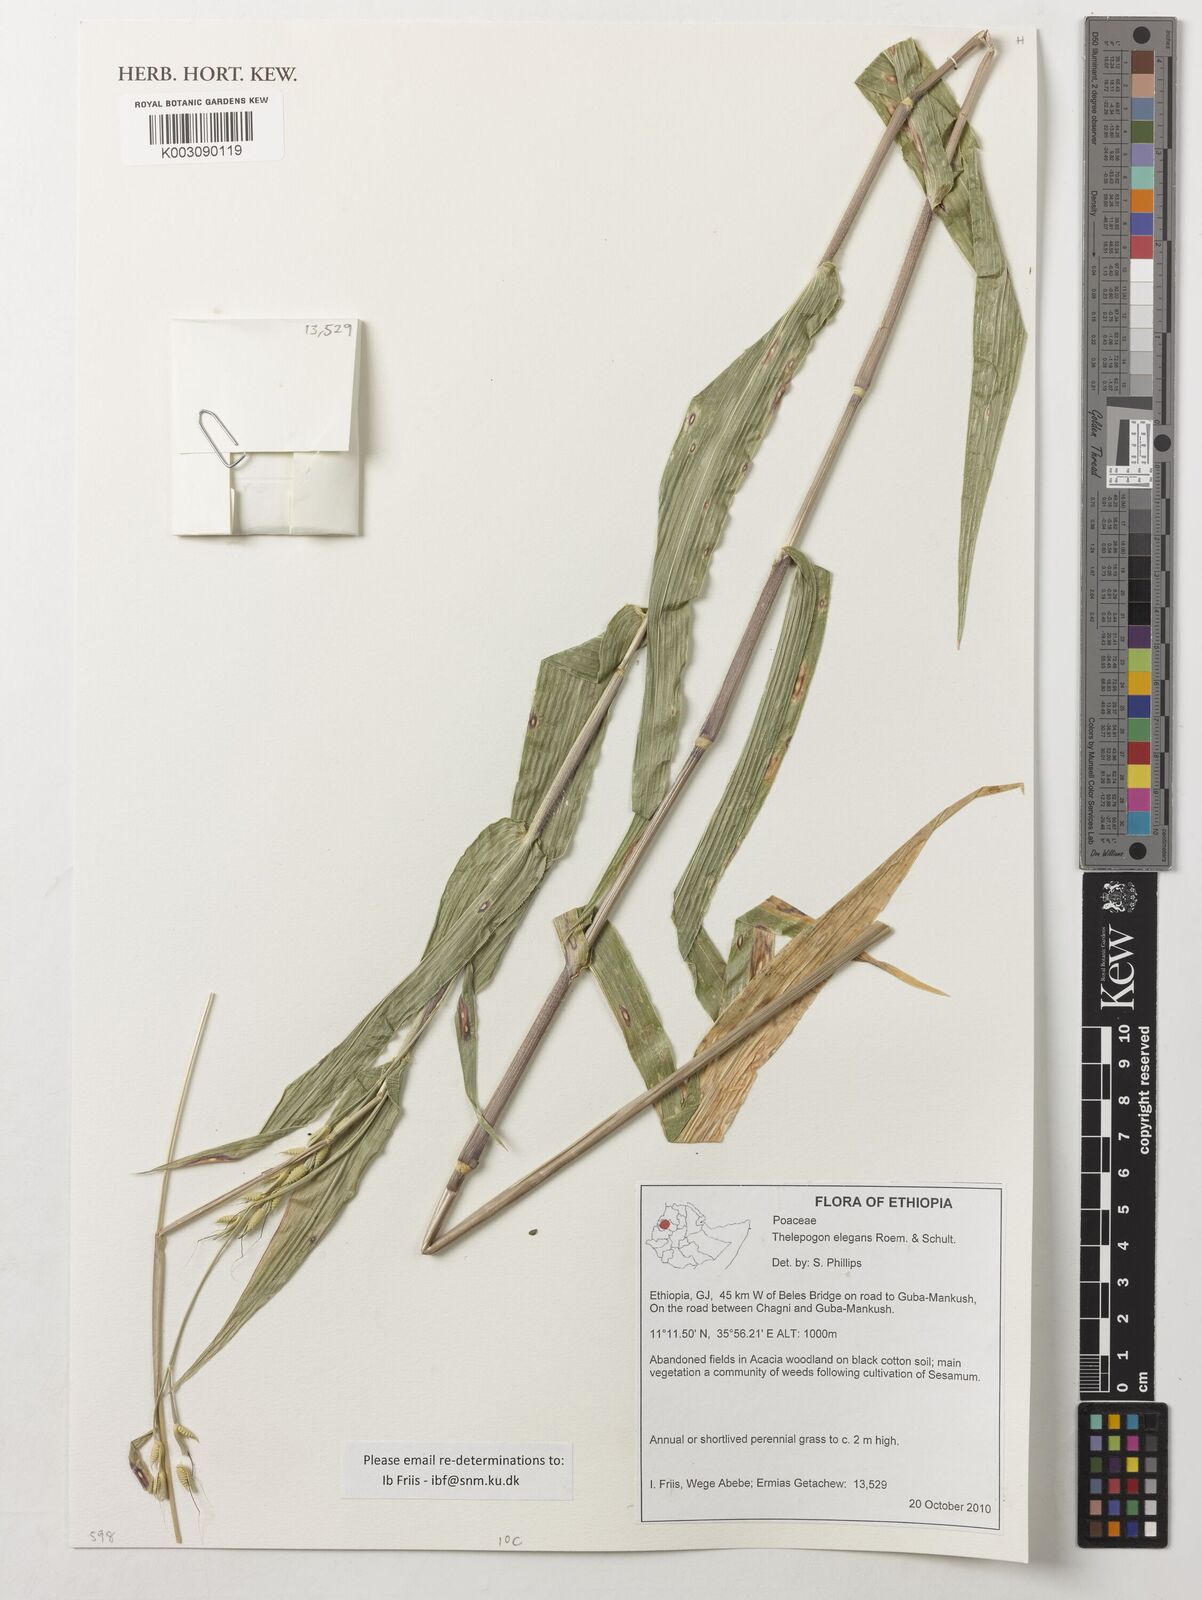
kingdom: Plantae
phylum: Tracheophyta
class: Liliopsida
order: Poales
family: Poaceae
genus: Thelepogon
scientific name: Thelepogon elegans
